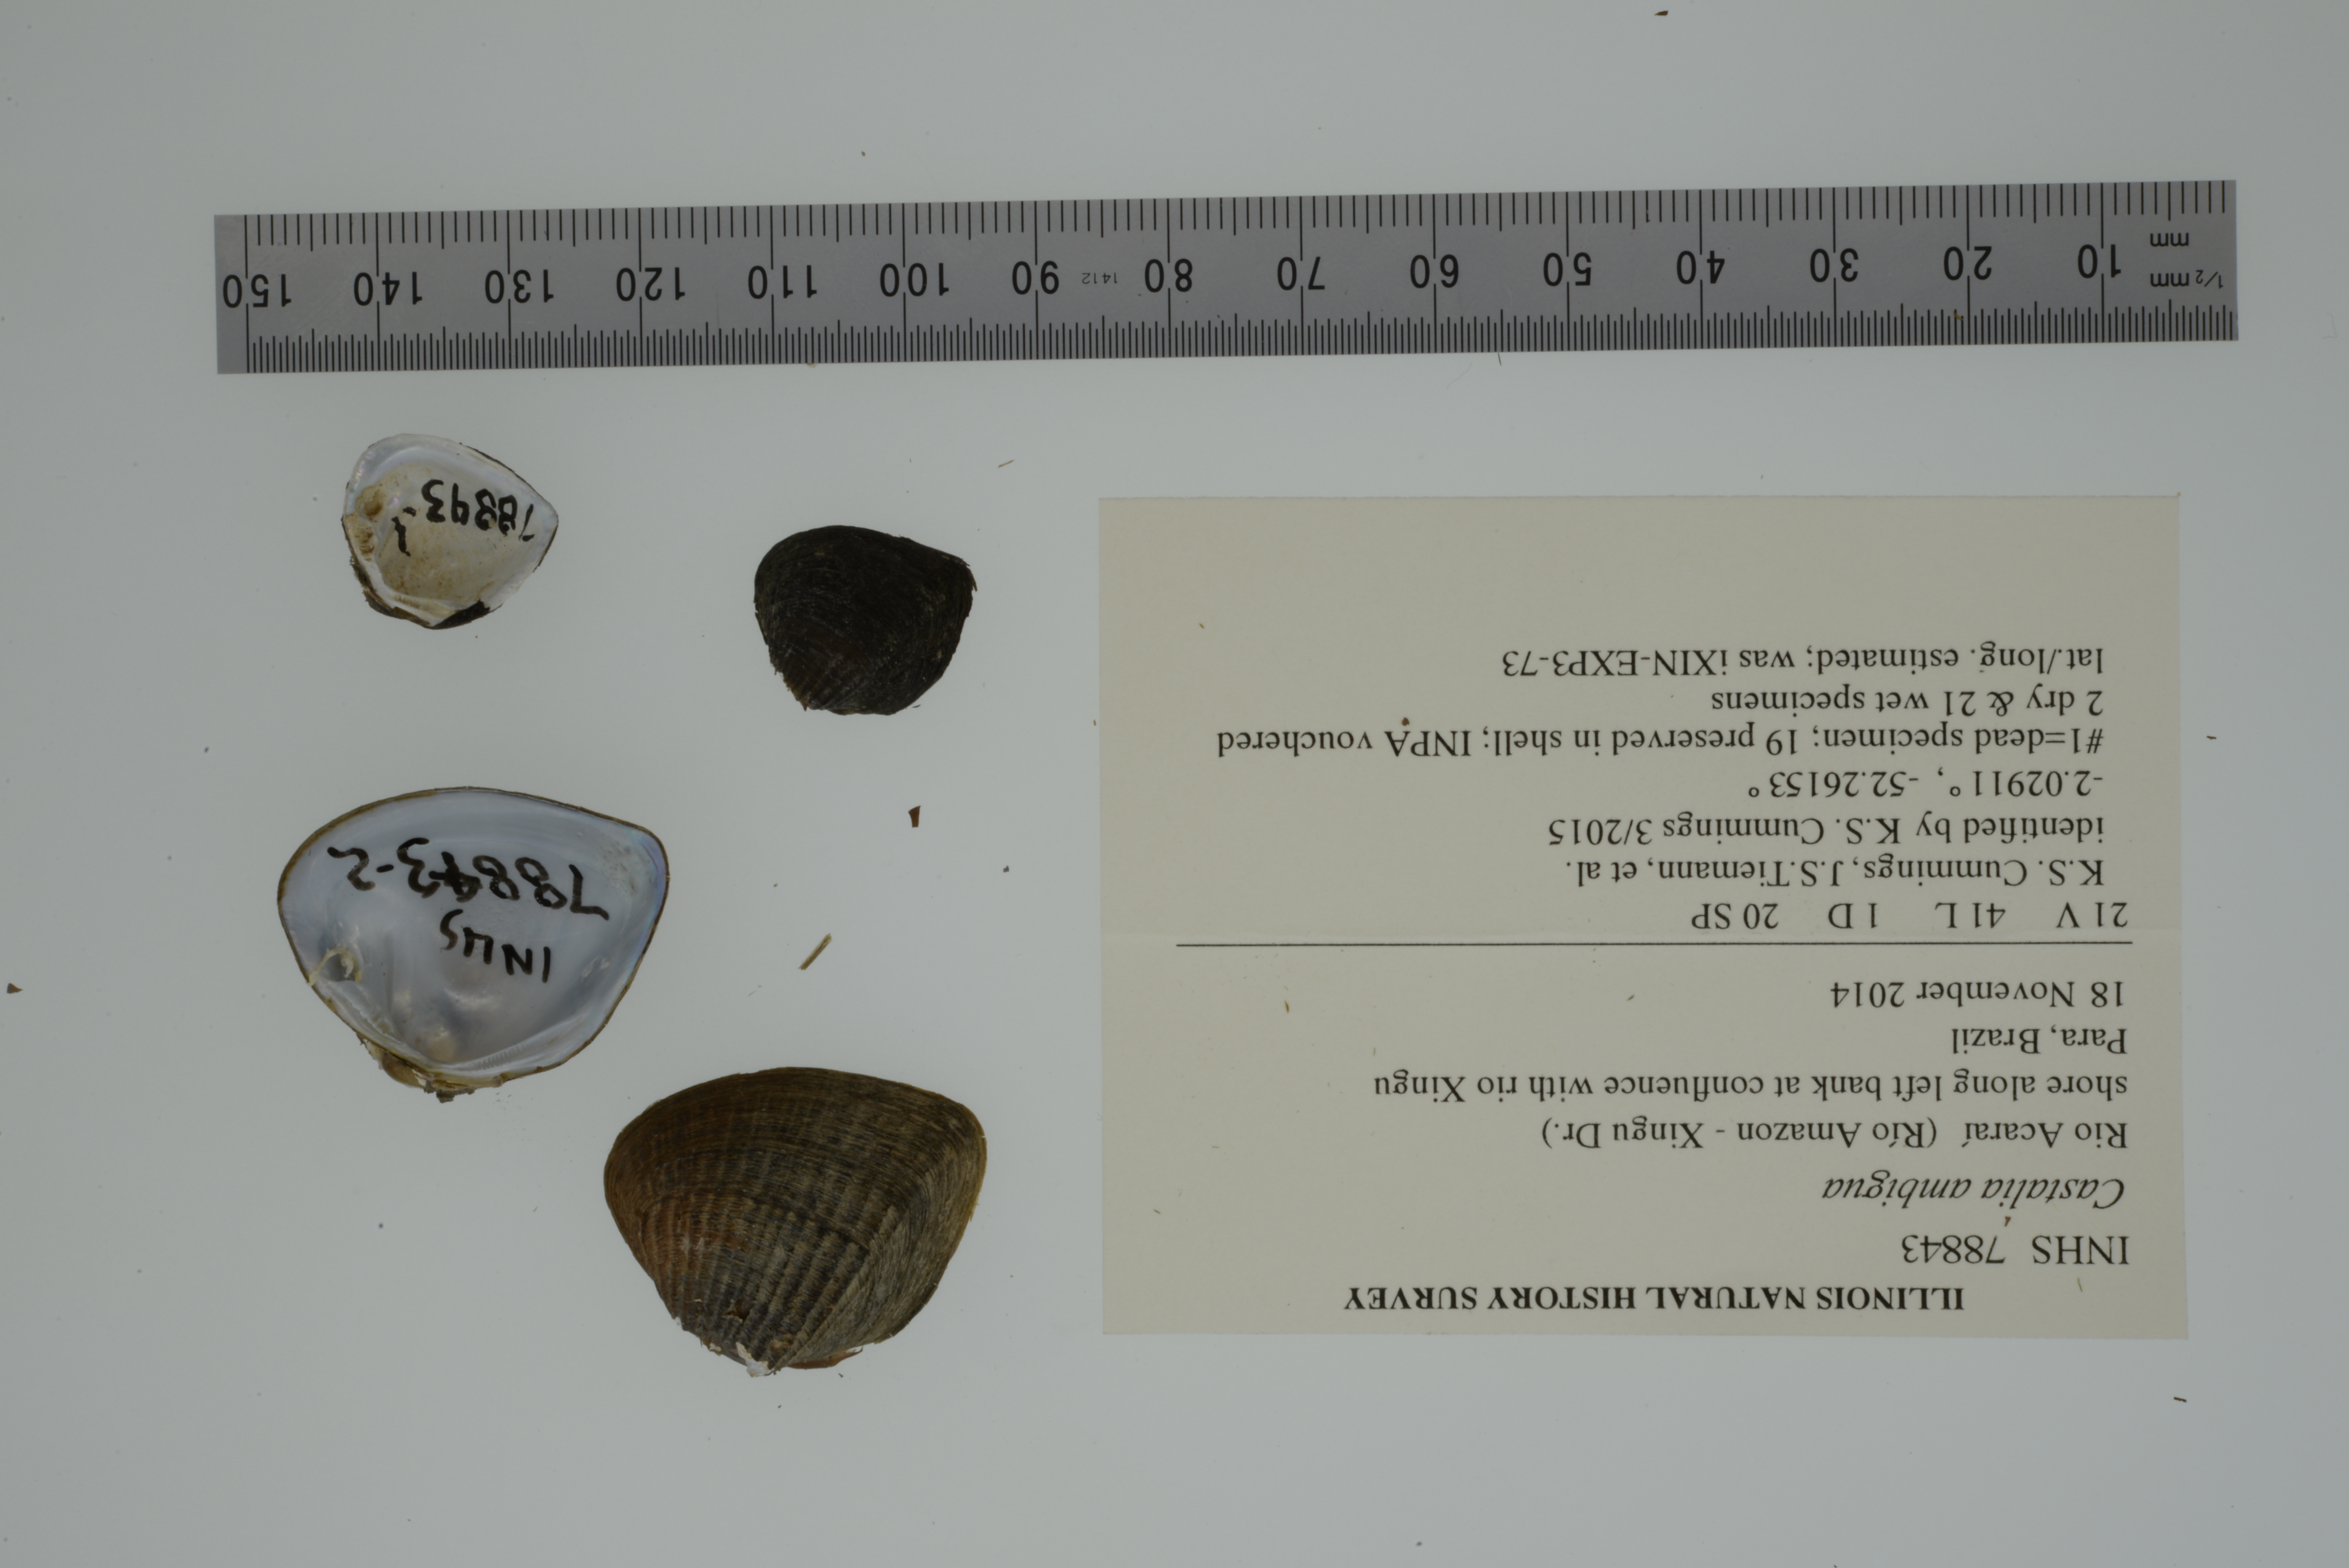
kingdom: Animalia
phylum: Mollusca
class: Bivalvia
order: Unionida
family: Hyriidae
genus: Castalia
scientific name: Castalia ambigua
